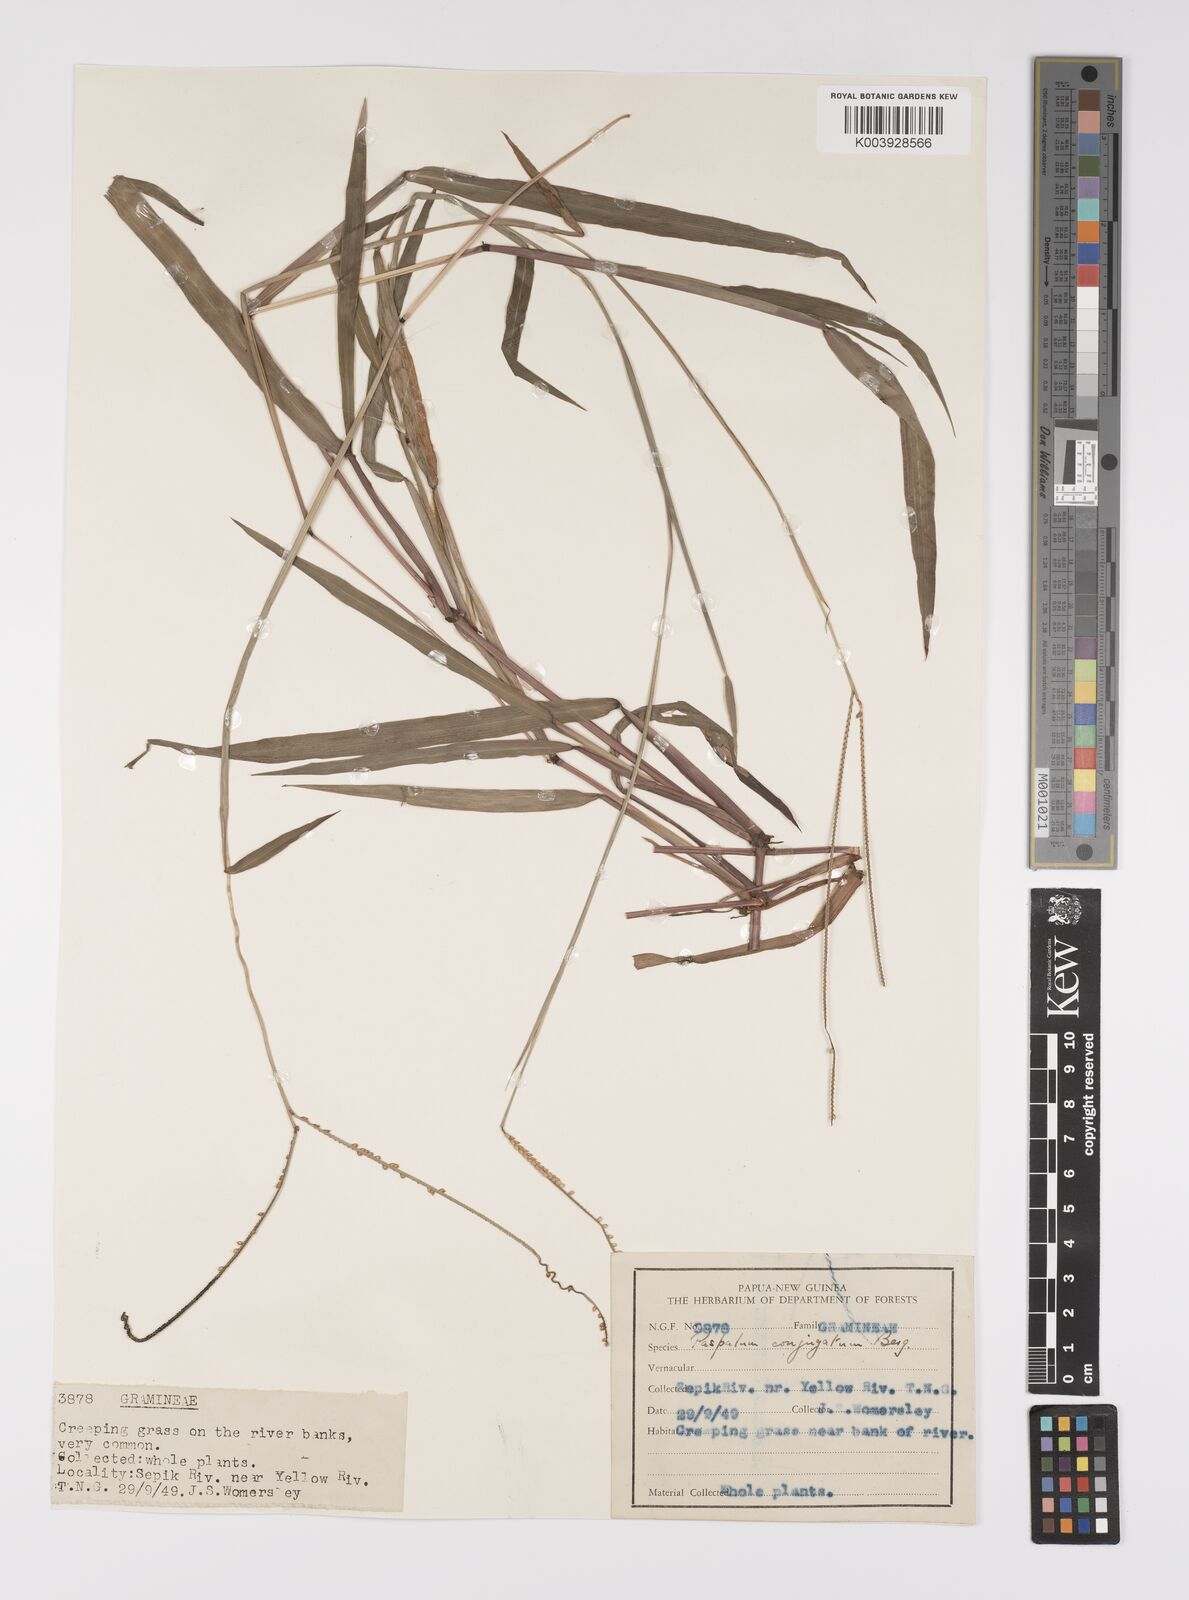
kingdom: Plantae
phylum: Tracheophyta
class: Liliopsida
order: Poales
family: Poaceae
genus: Paspalum
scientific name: Paspalum conjugatum
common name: Hilograss
